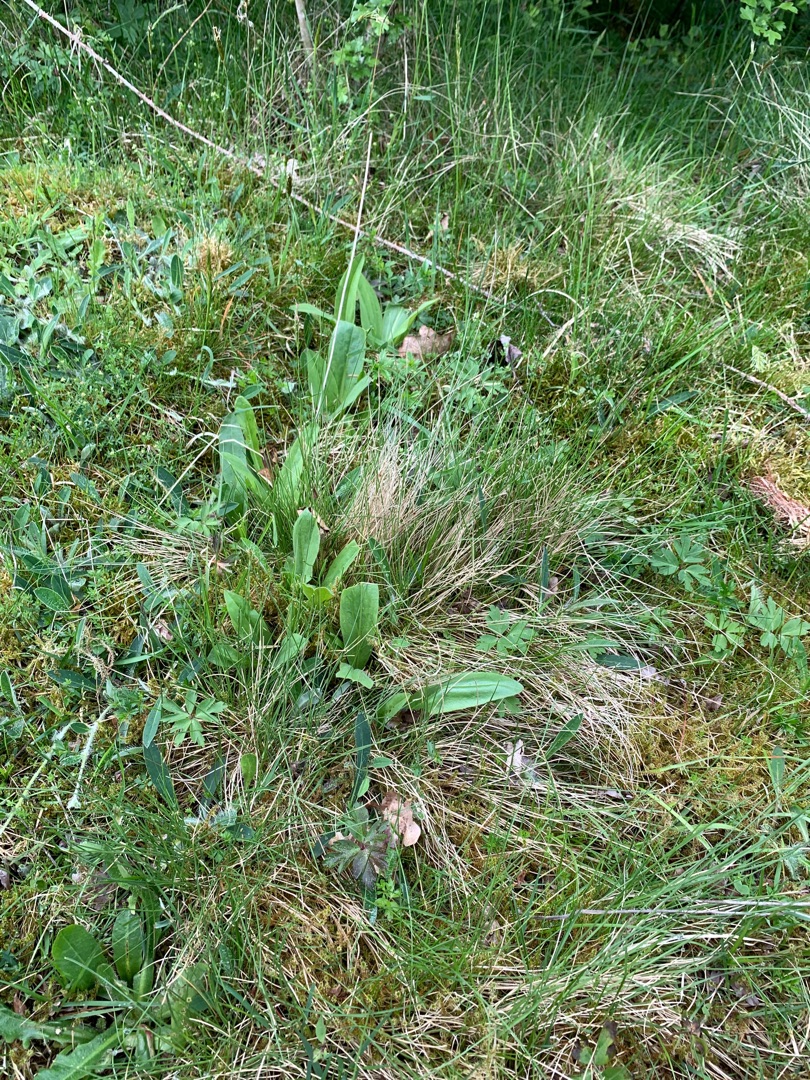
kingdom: Plantae
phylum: Tracheophyta
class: Magnoliopsida
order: Asterales
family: Asteraceae
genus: Arnica
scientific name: Arnica montana
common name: Guldblomme
